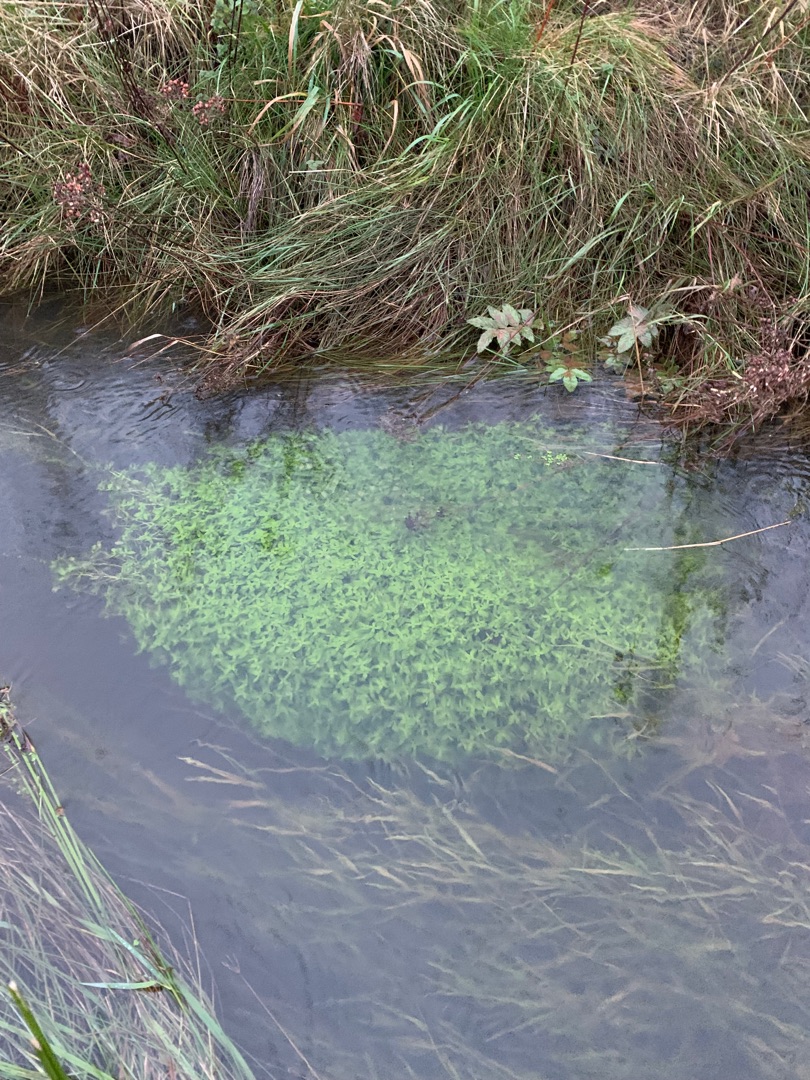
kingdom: Plantae
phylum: Tracheophyta
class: Magnoliopsida
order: Lamiales
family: Plantaginaceae
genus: Callitriche
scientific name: Callitriche
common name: Vandstjerneslægten
